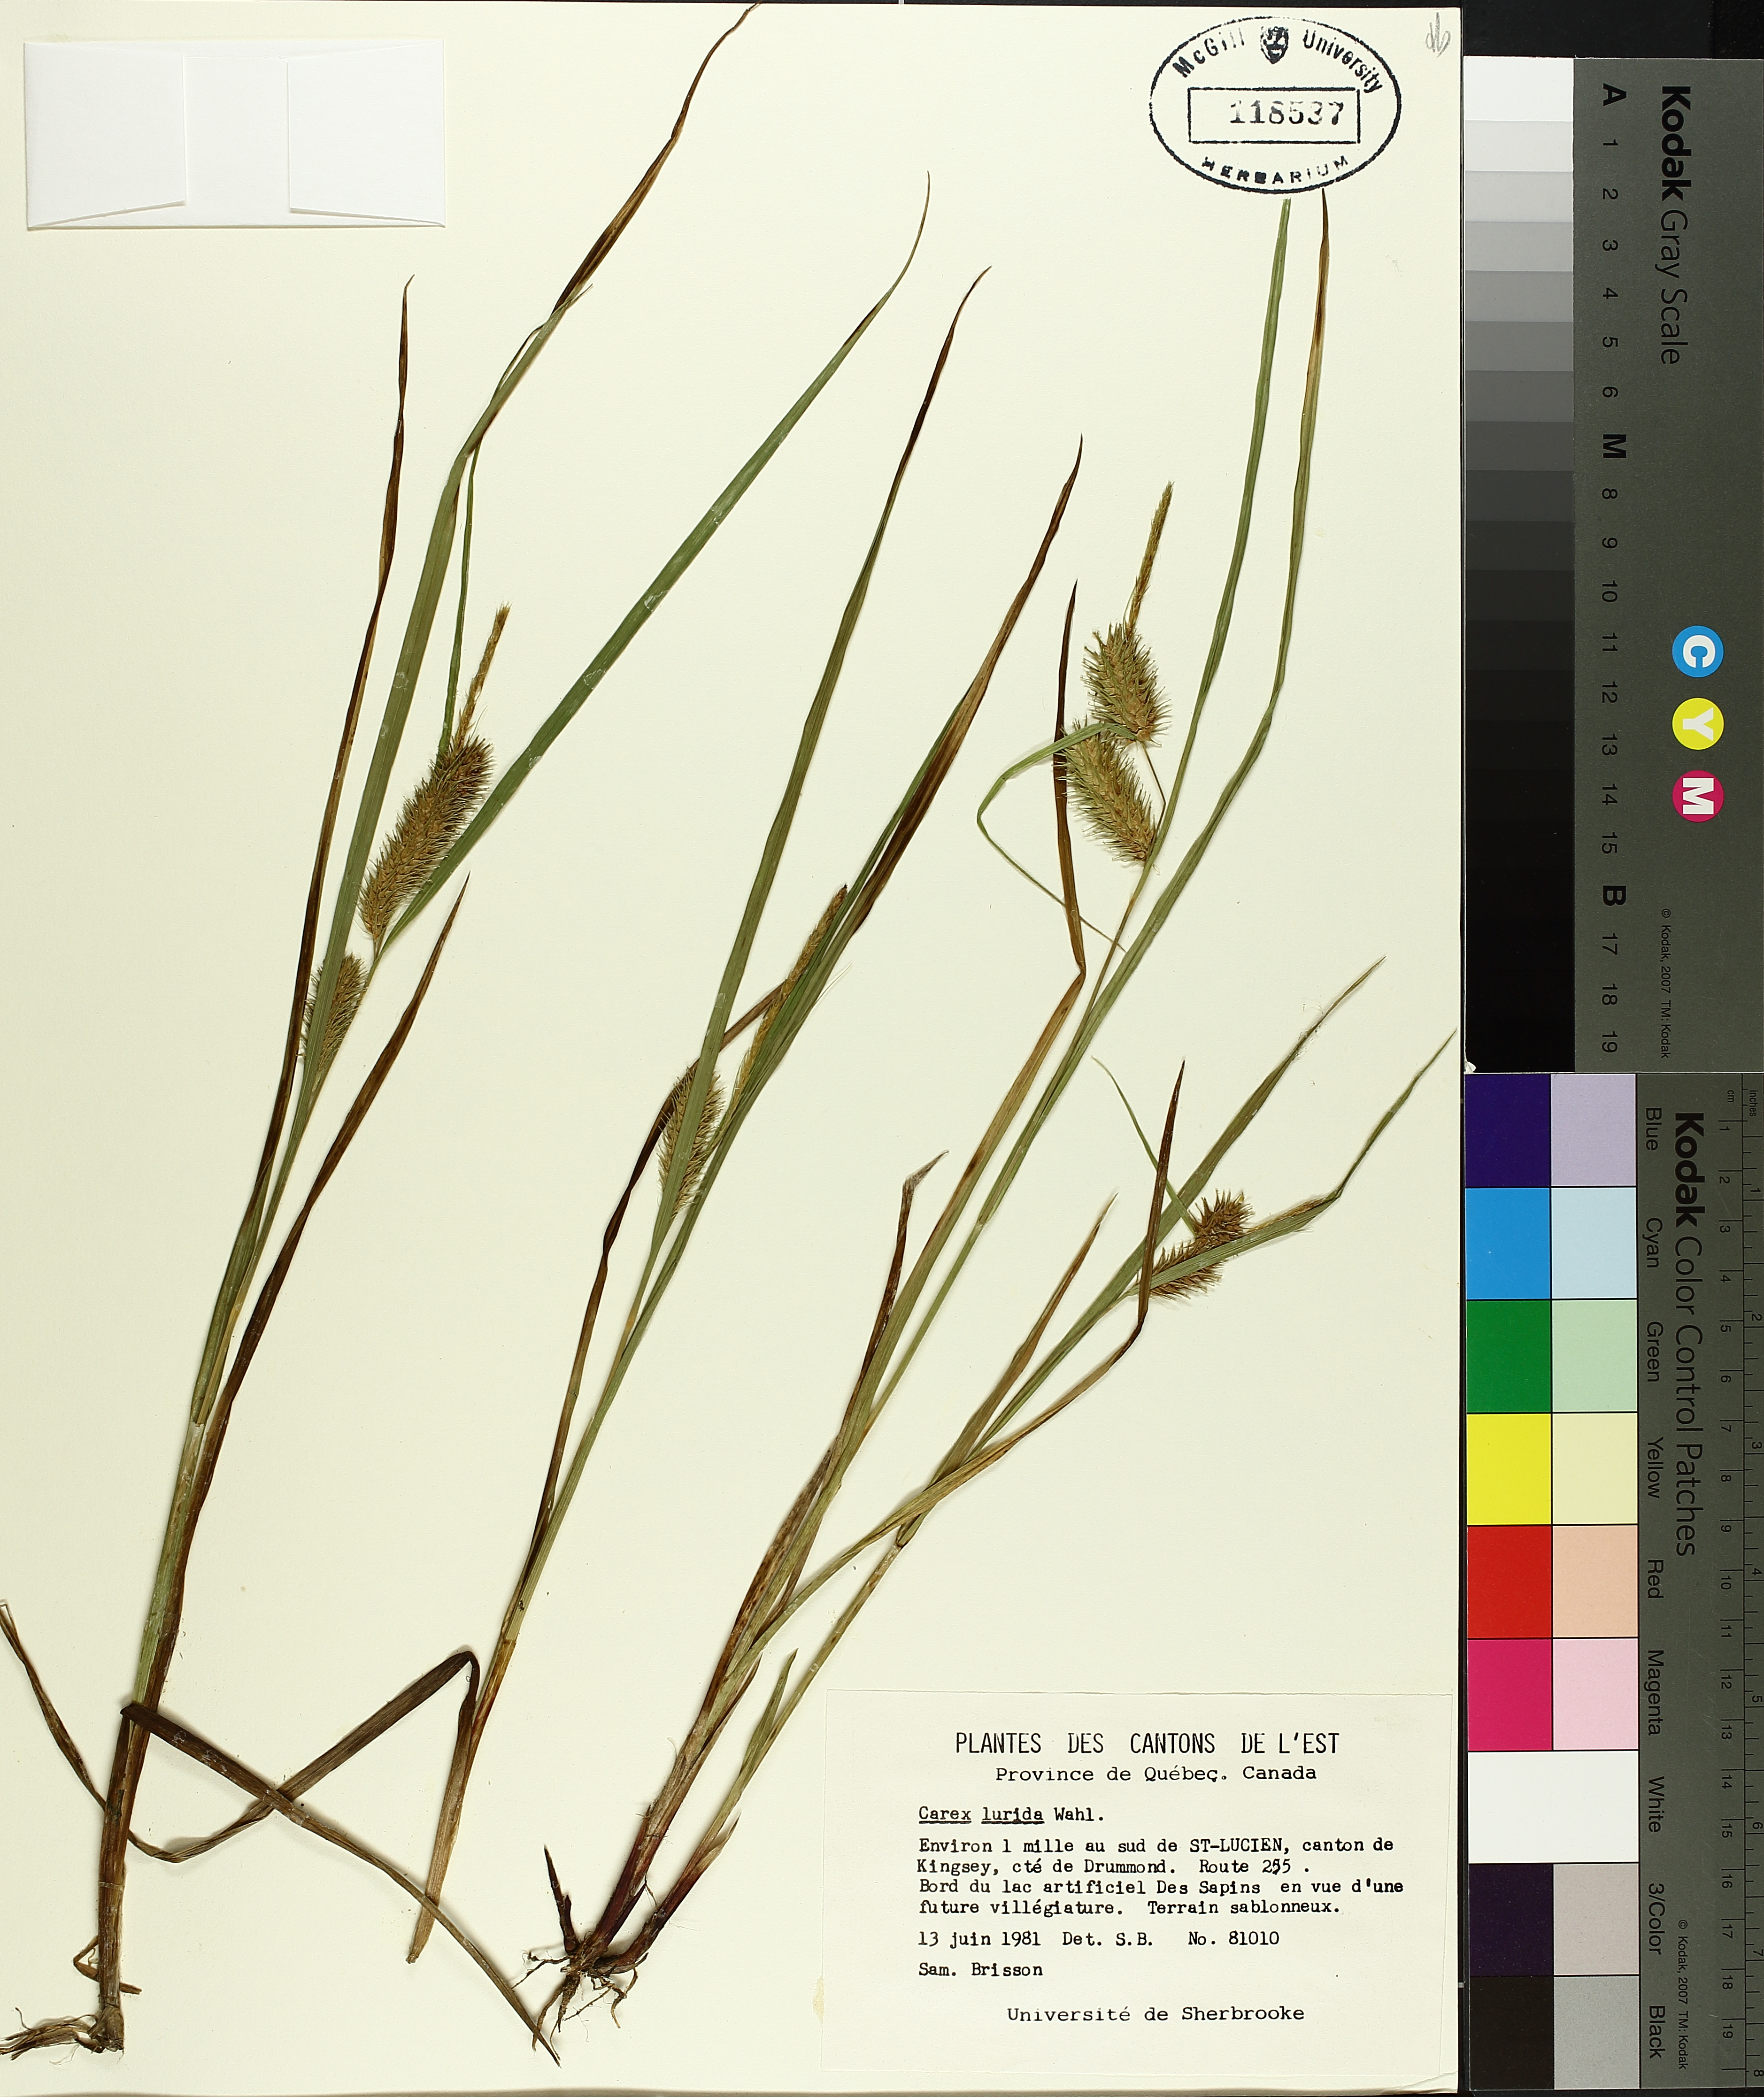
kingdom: Plantae
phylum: Tracheophyta
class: Liliopsida
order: Poales
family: Cyperaceae
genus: Carex
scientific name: Carex lurida
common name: Sallow sedge
